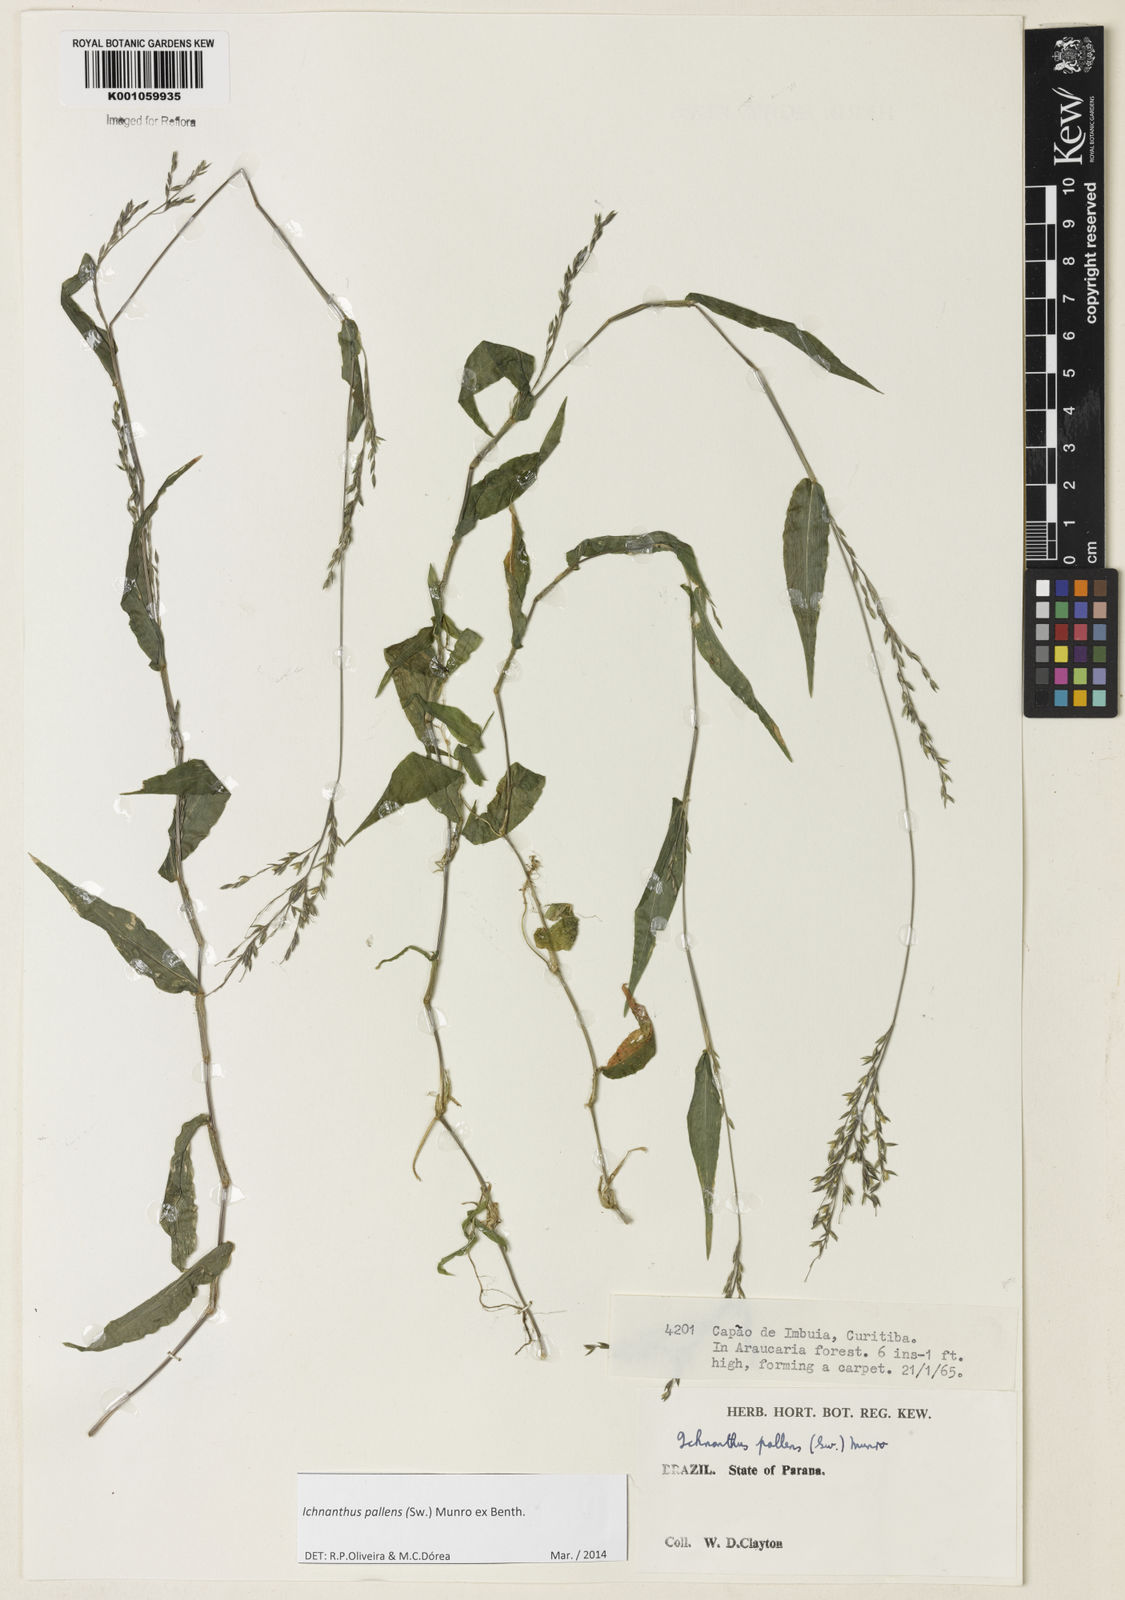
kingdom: Plantae
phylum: Tracheophyta
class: Liliopsida
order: Poales
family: Poaceae
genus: Ichnanthus
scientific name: Ichnanthus pallens
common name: Water grass
